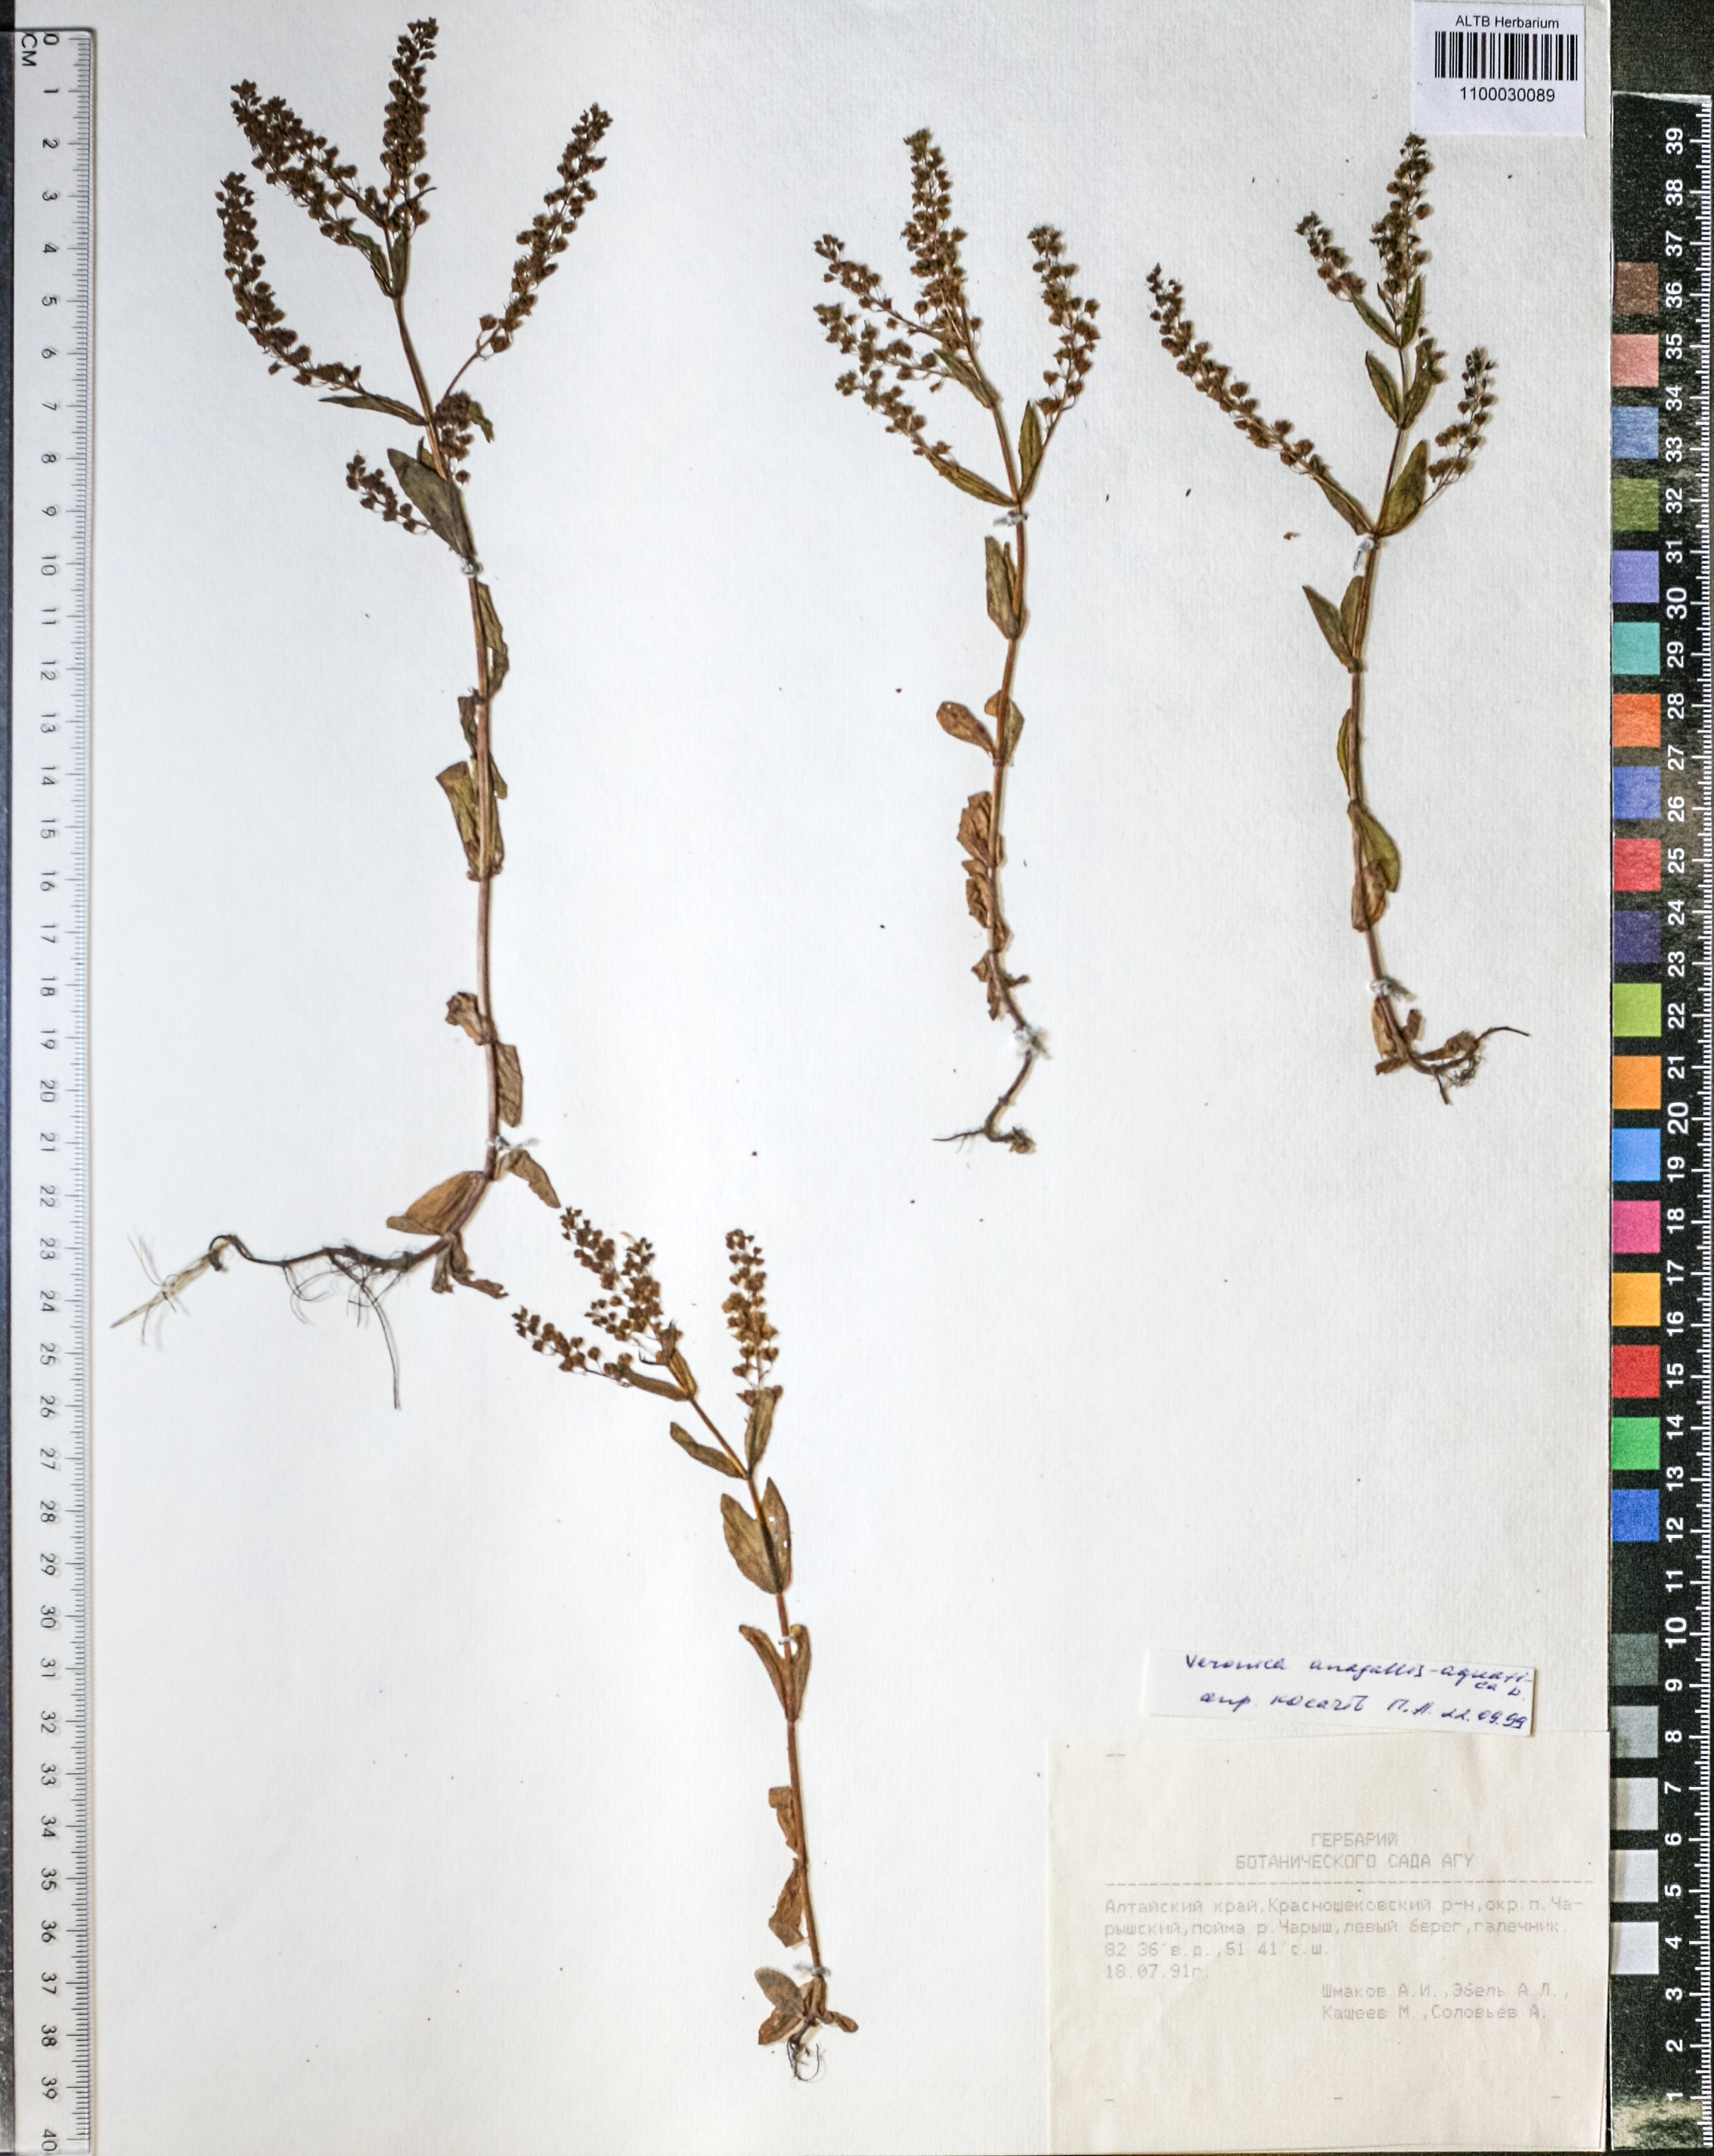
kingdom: Plantae
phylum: Tracheophyta
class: Magnoliopsida
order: Lamiales
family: Plantaginaceae
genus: Veronica
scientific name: Veronica anagallis-aquatica
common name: Water speedwell
